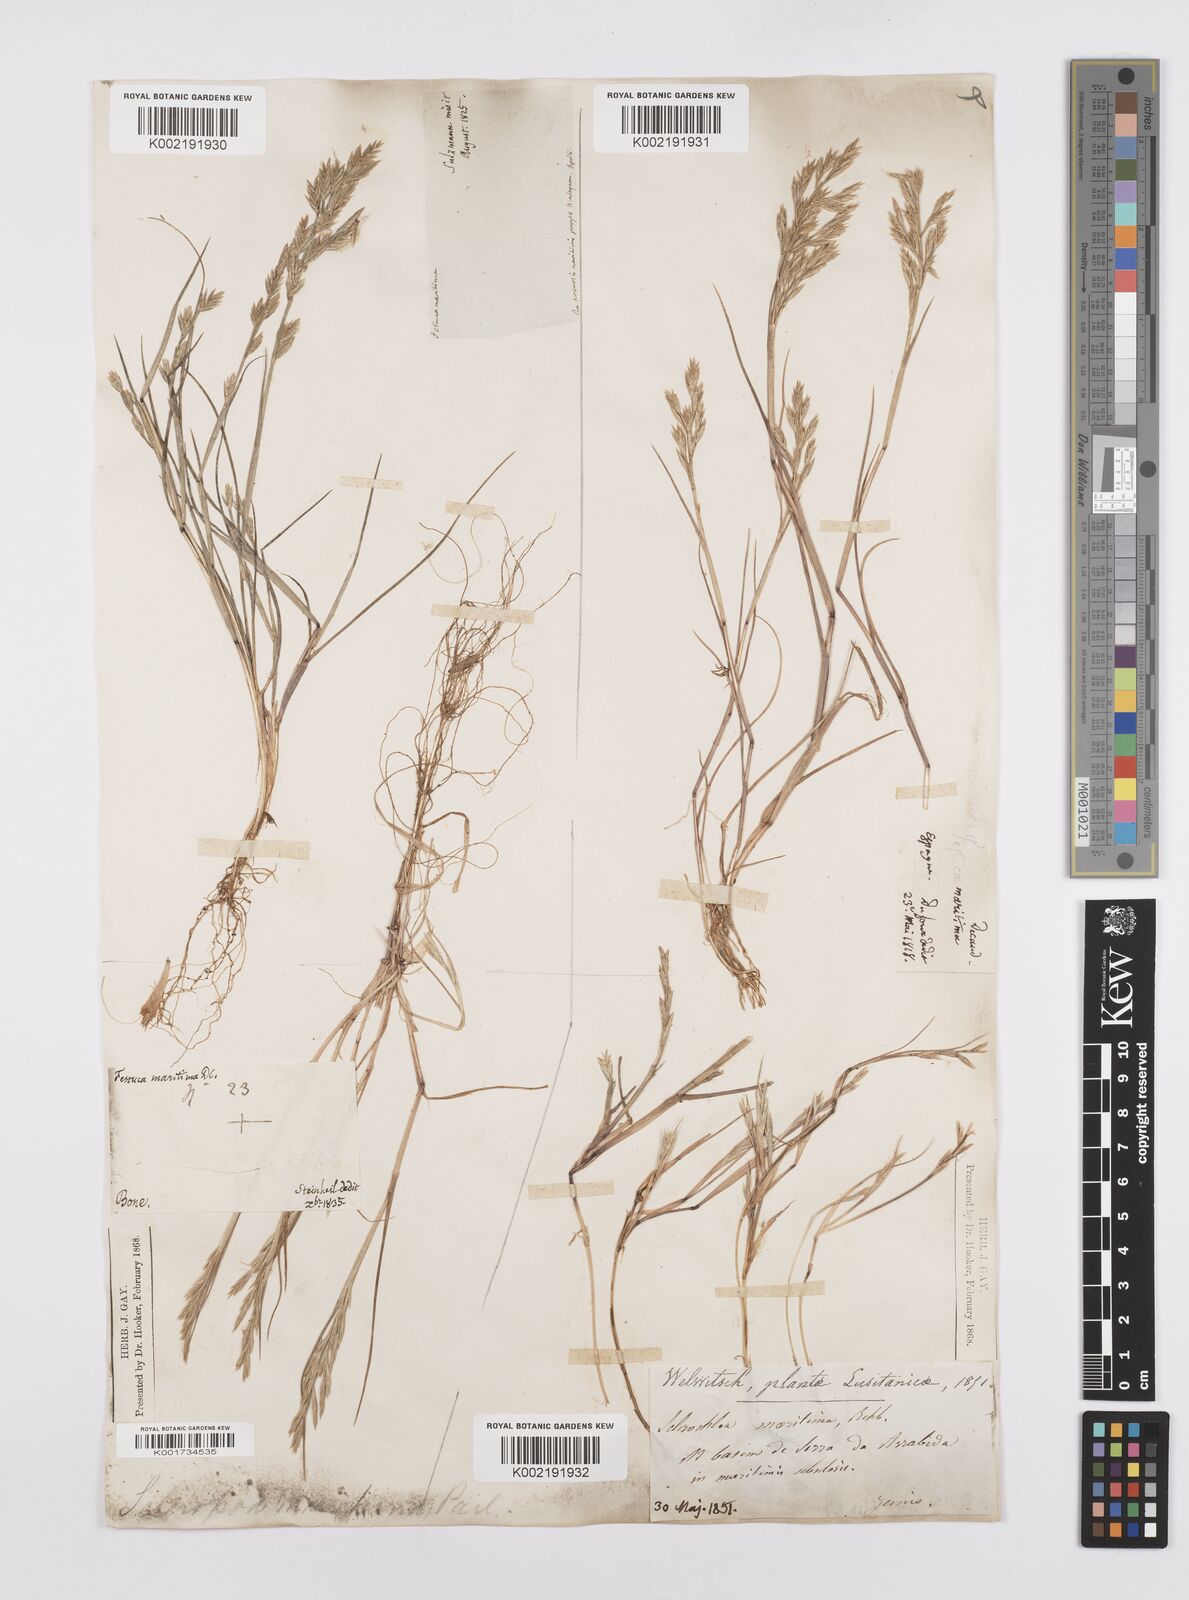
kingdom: Plantae
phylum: Tracheophyta
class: Liliopsida
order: Poales
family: Poaceae
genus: Cutandia
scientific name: Cutandia maritima
